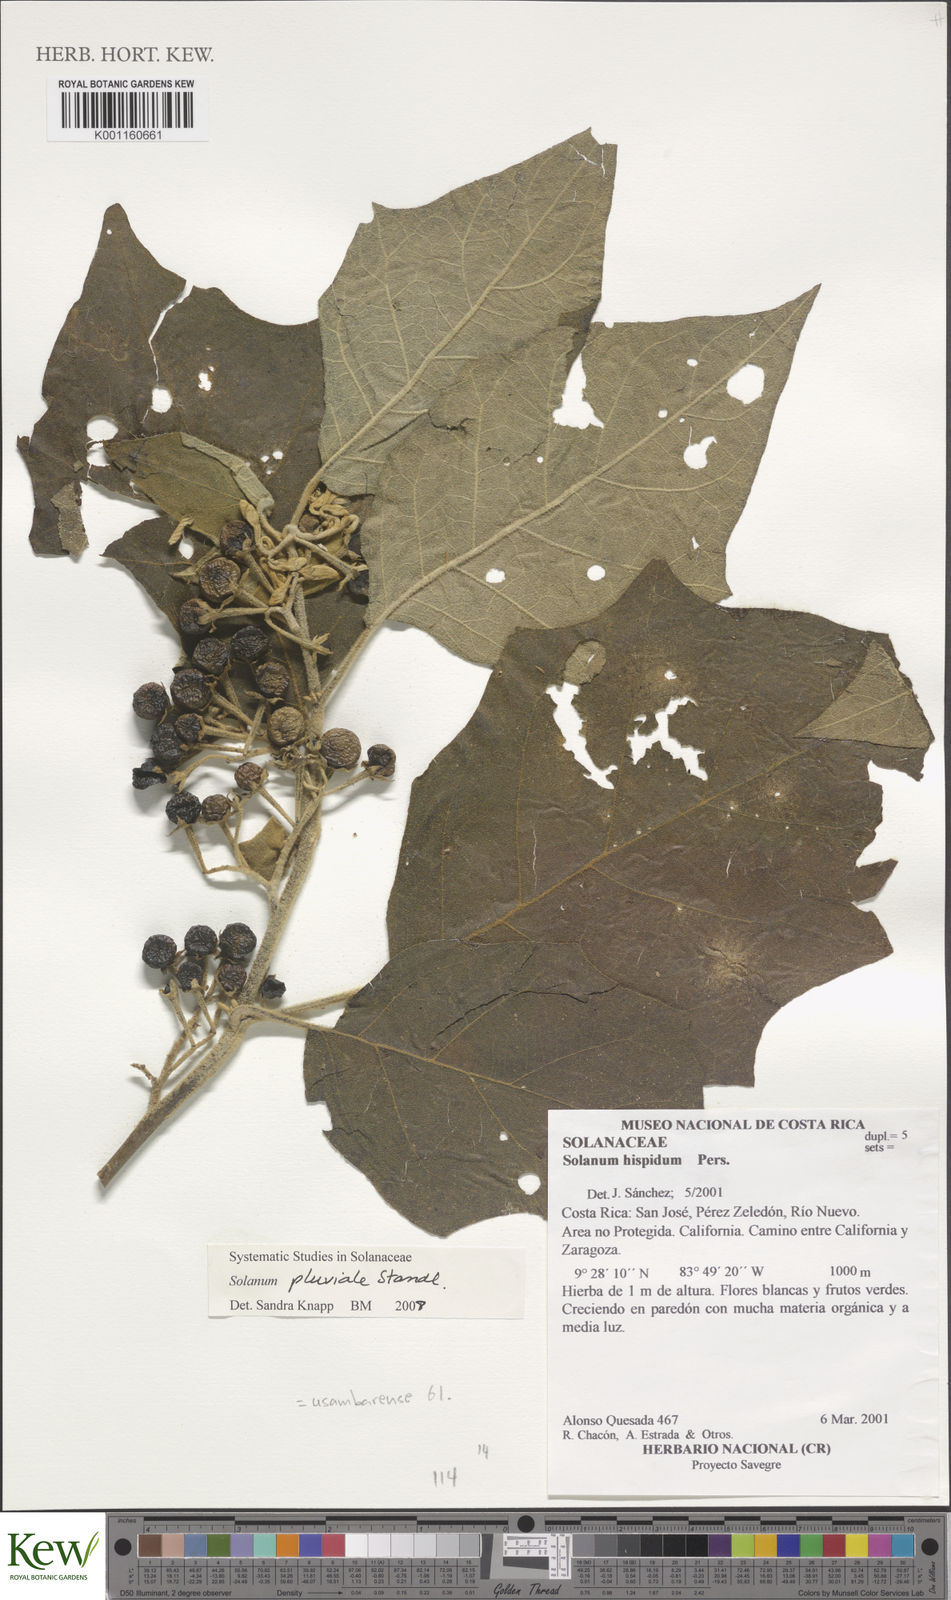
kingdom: Plantae
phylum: Tracheophyta
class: Magnoliopsida
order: Solanales
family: Solanaceae
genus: Solanum
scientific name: Solanum pluviale
